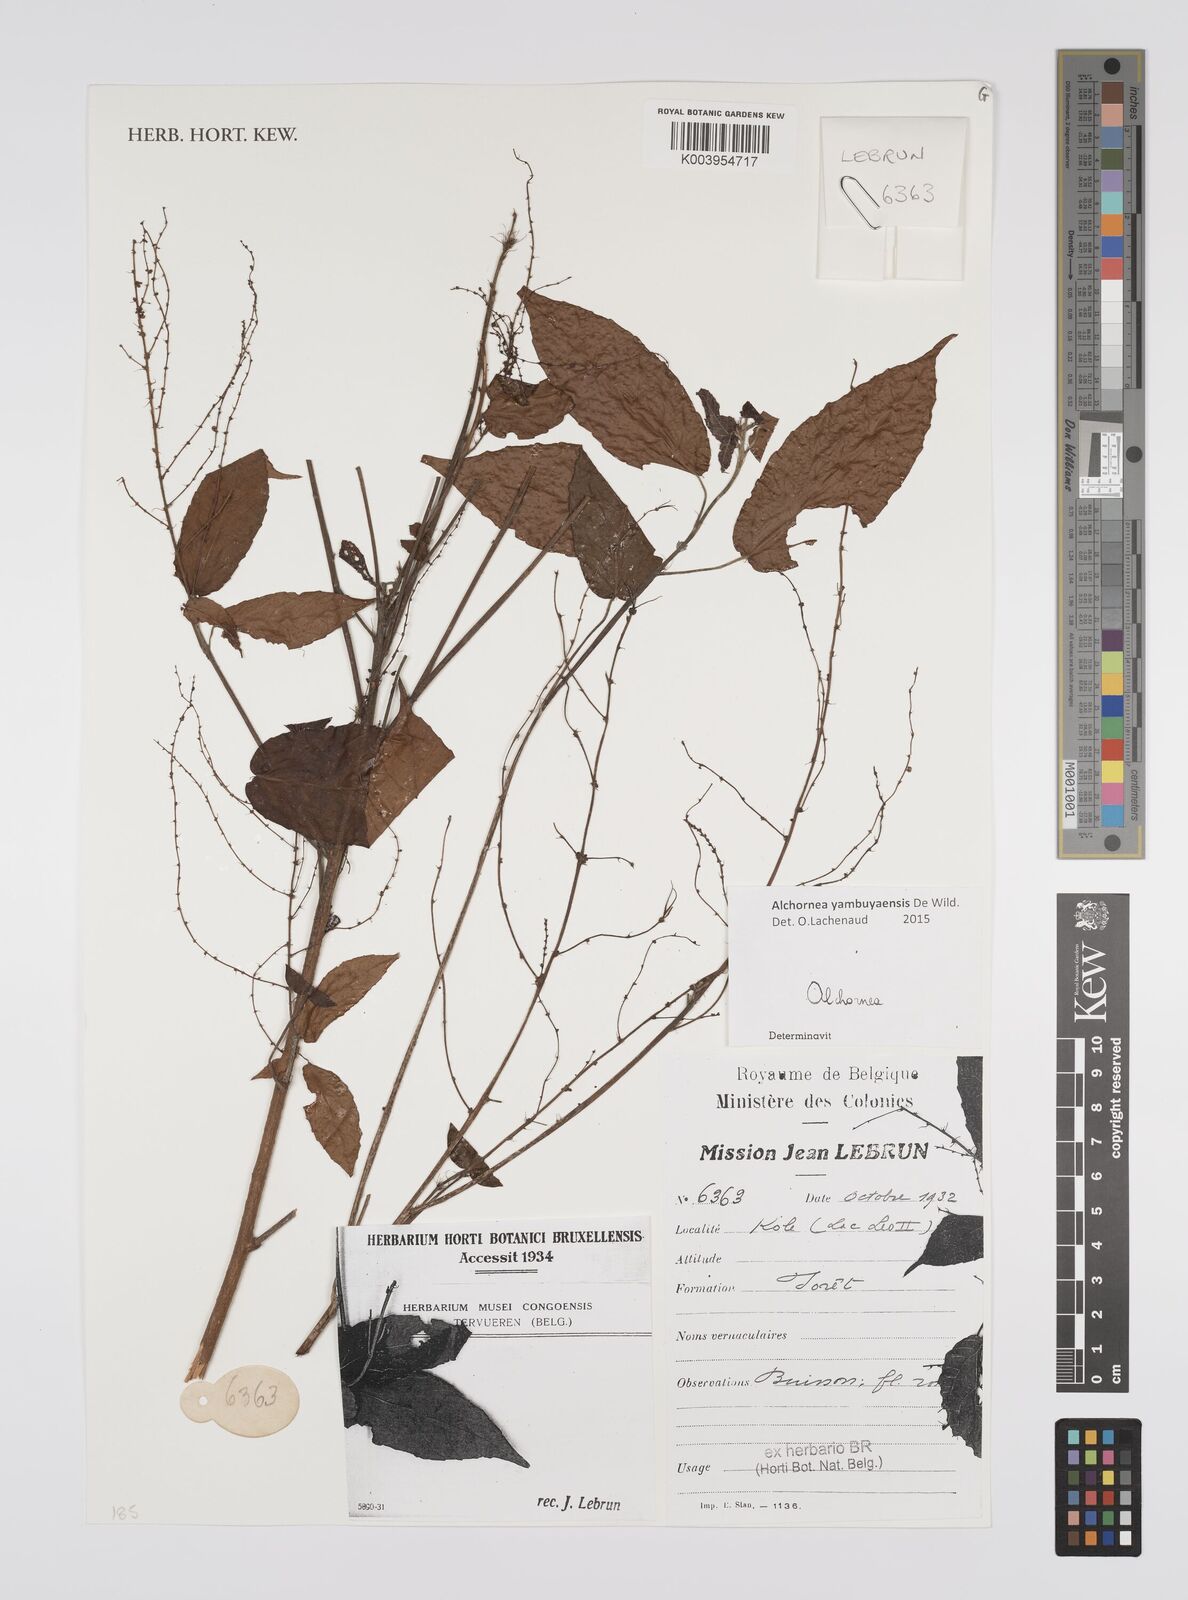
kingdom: Plantae
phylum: Tracheophyta
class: Magnoliopsida
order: Malpighiales
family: Euphorbiaceae
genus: Alchornea
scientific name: Alchornea yambuyaensis
